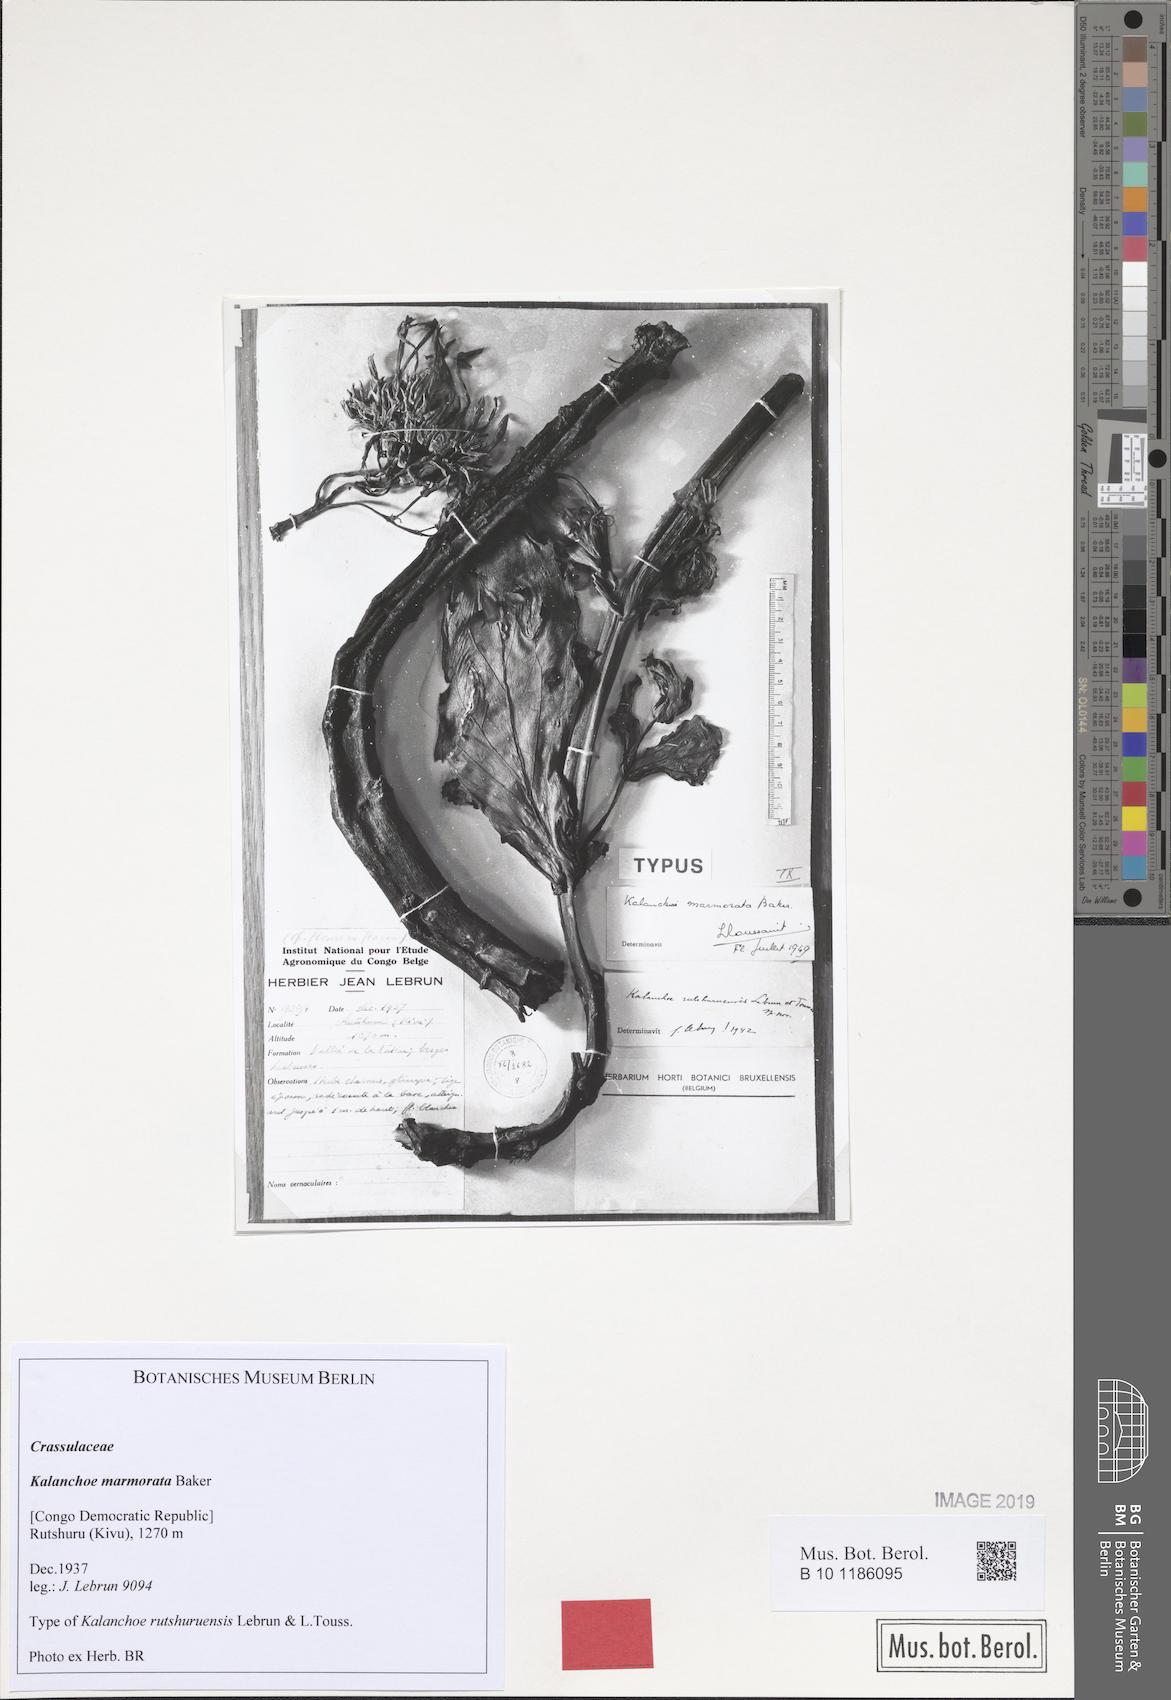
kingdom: Plantae
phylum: Tracheophyta
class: Magnoliopsida
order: Saxifragales
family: Crassulaceae
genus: Kalanchoe
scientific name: Kalanchoe marmorata
